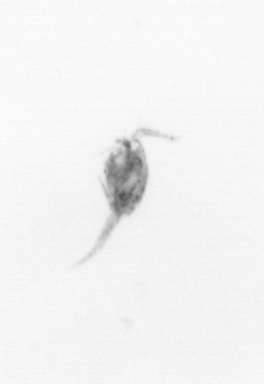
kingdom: Animalia
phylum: Arthropoda
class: Copepoda
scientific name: Copepoda
